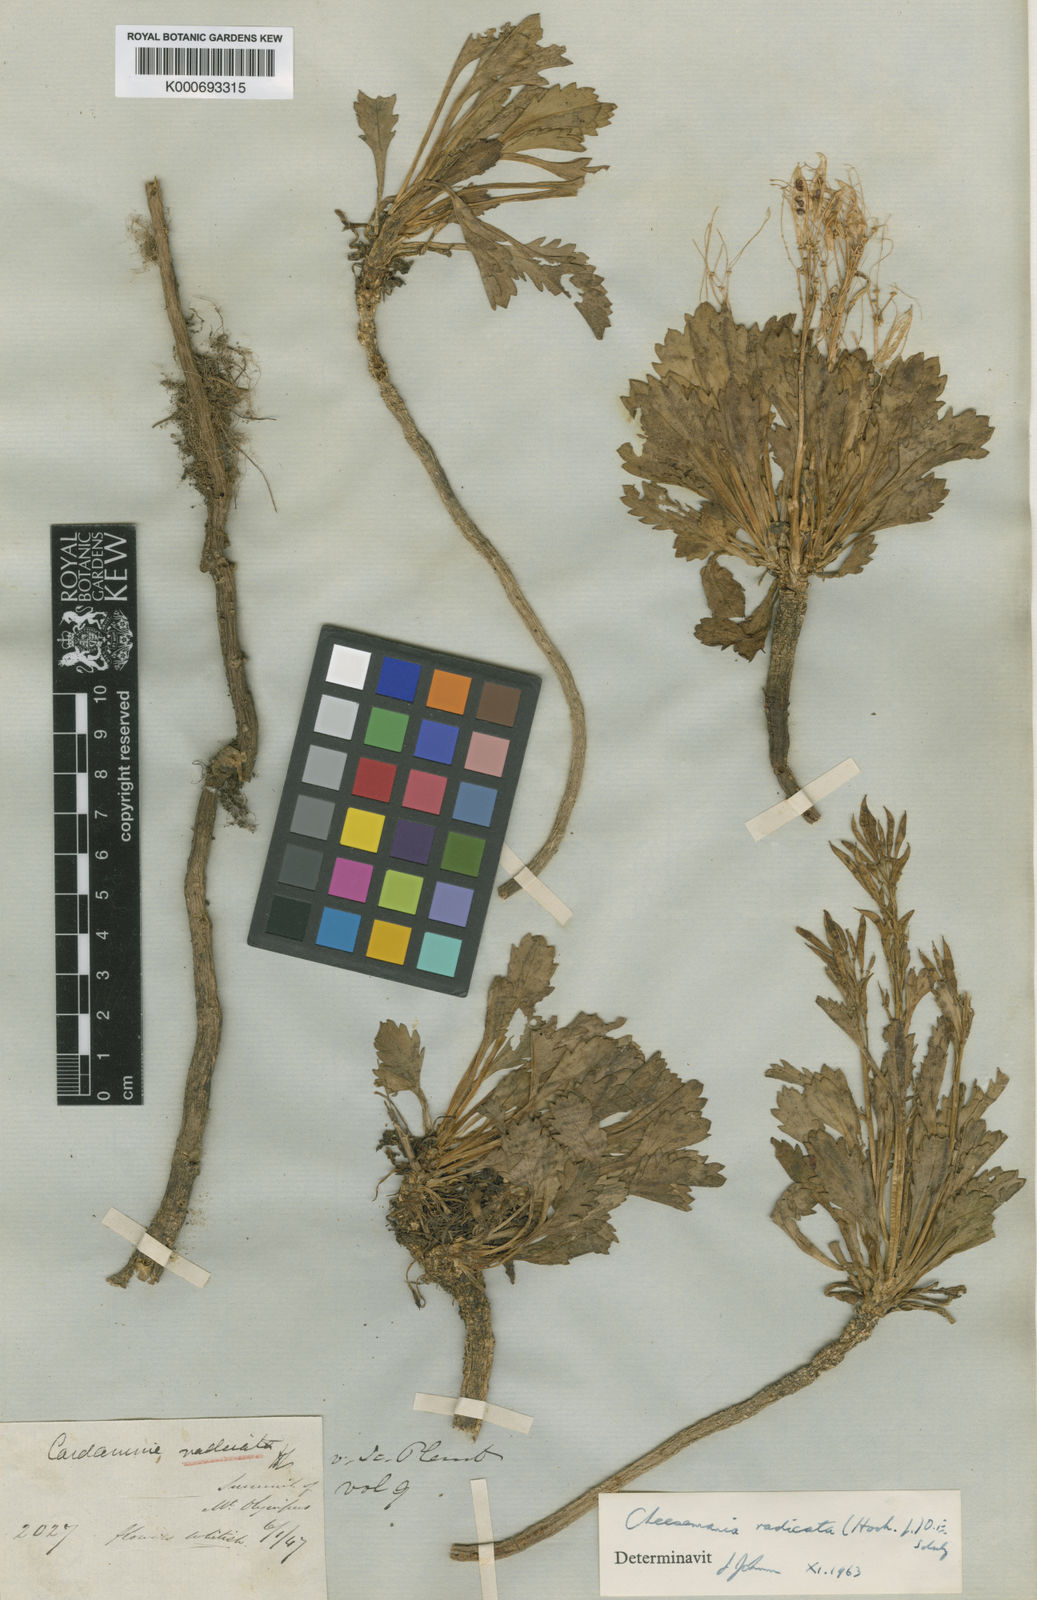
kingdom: Plantae
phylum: Tracheophyta
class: Magnoliopsida
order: Brassicales
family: Brassicaceae
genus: Pachycladon
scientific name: Pachycladon radicatum
